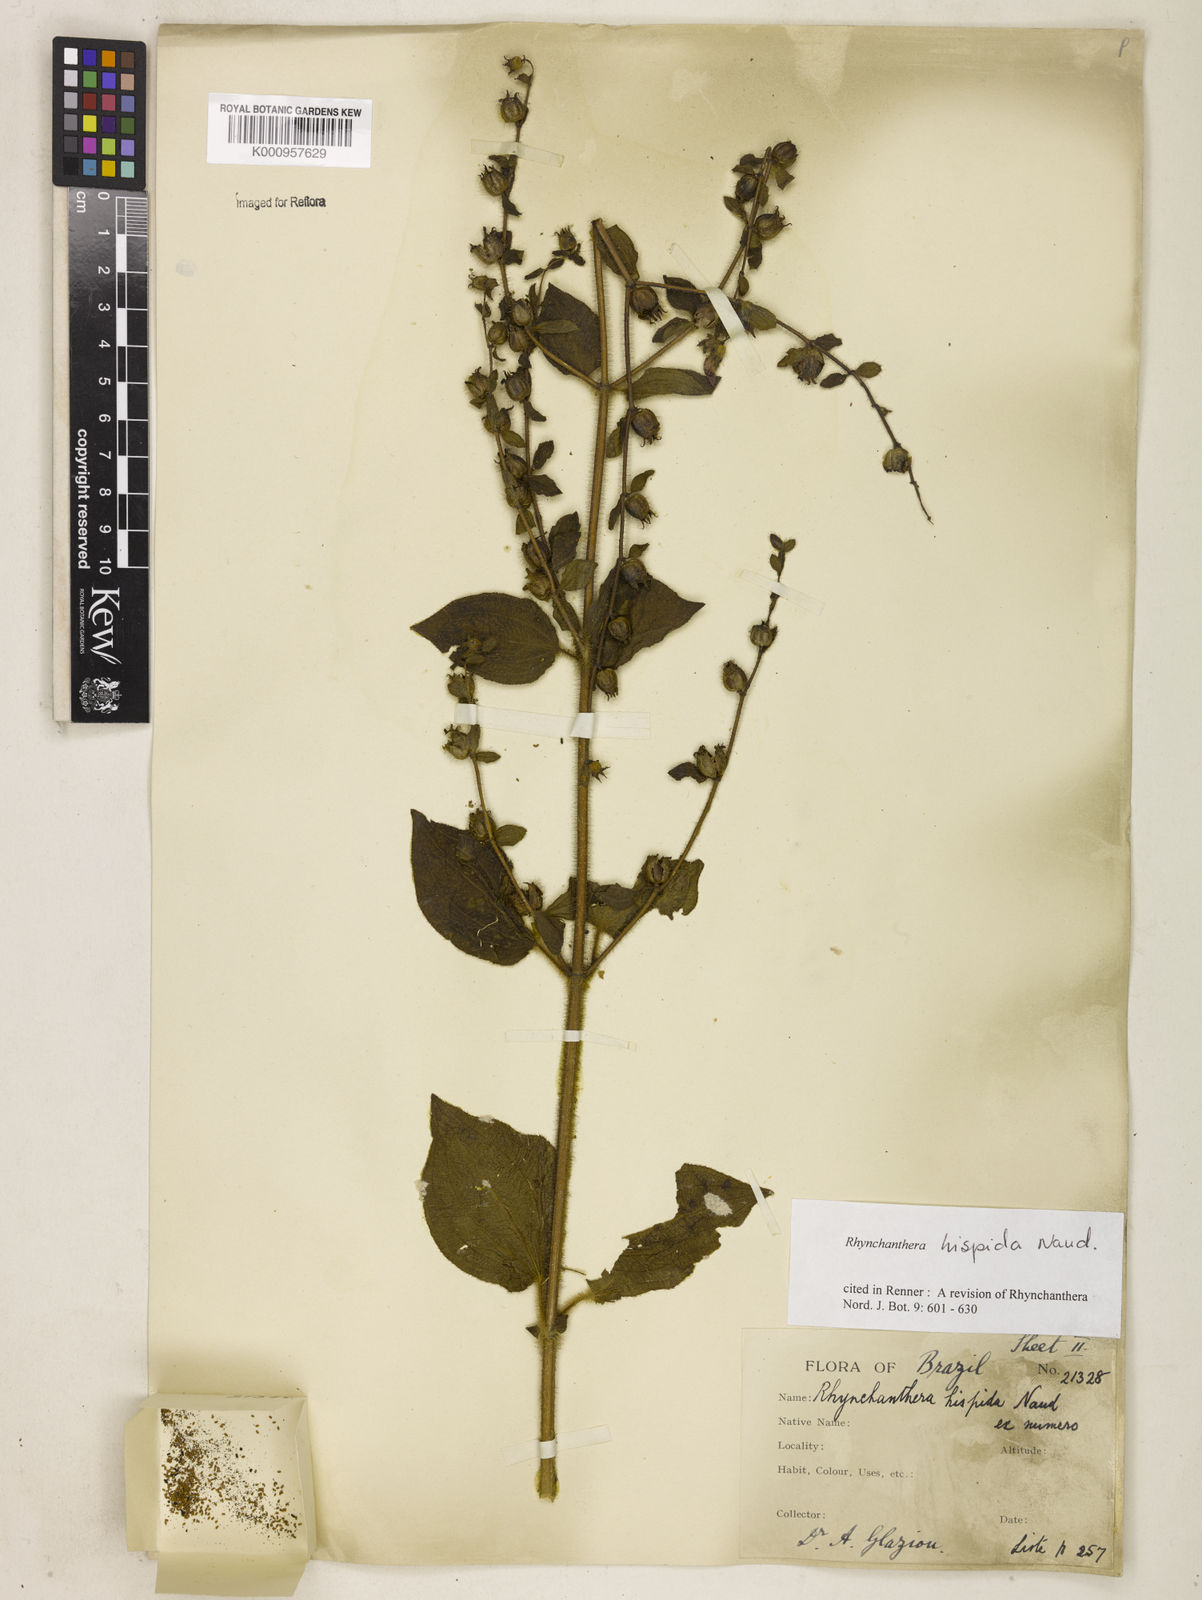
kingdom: Plantae
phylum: Tracheophyta
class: Magnoliopsida
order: Myrtales
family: Melastomataceae
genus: Rhynchanthera
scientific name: Rhynchanthera hispida
